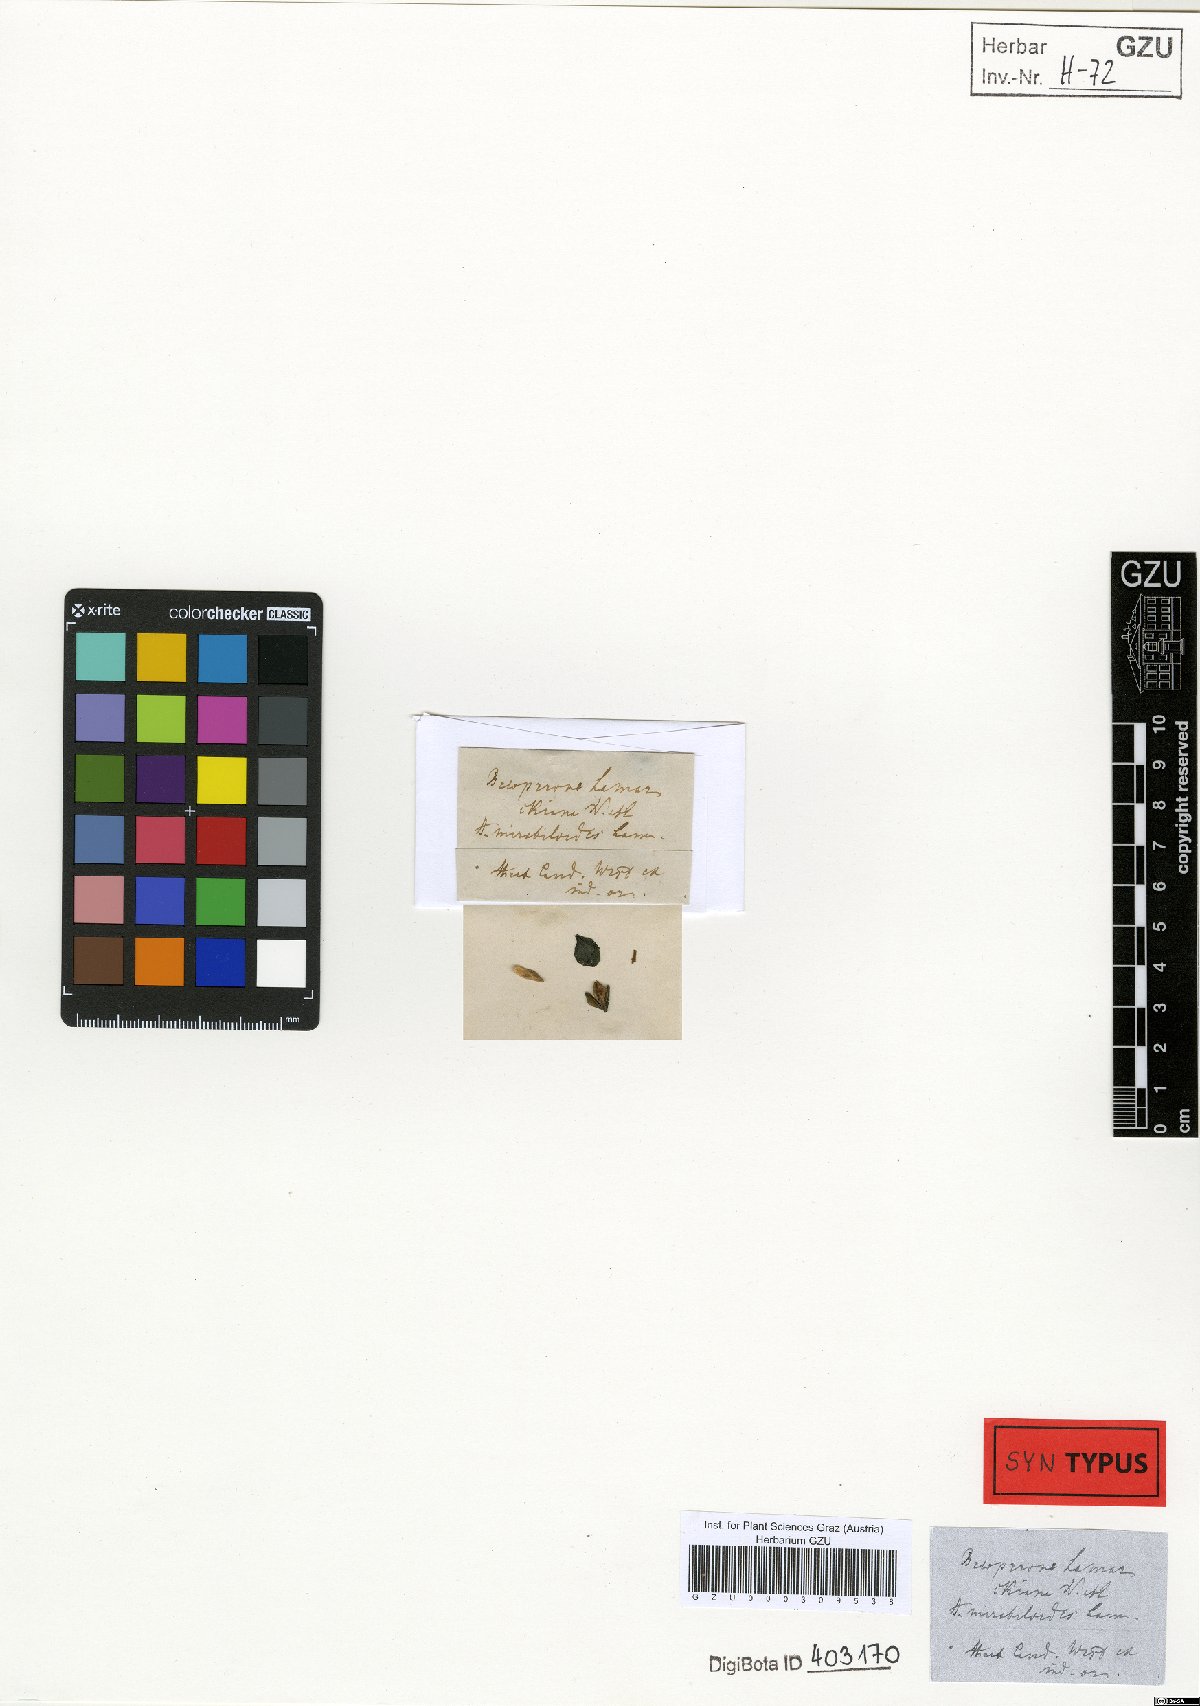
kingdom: Plantae
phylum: Tracheophyta
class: Magnoliopsida
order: Lamiales
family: Acanthaceae
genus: Justicia
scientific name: Justicia mirabiloides
